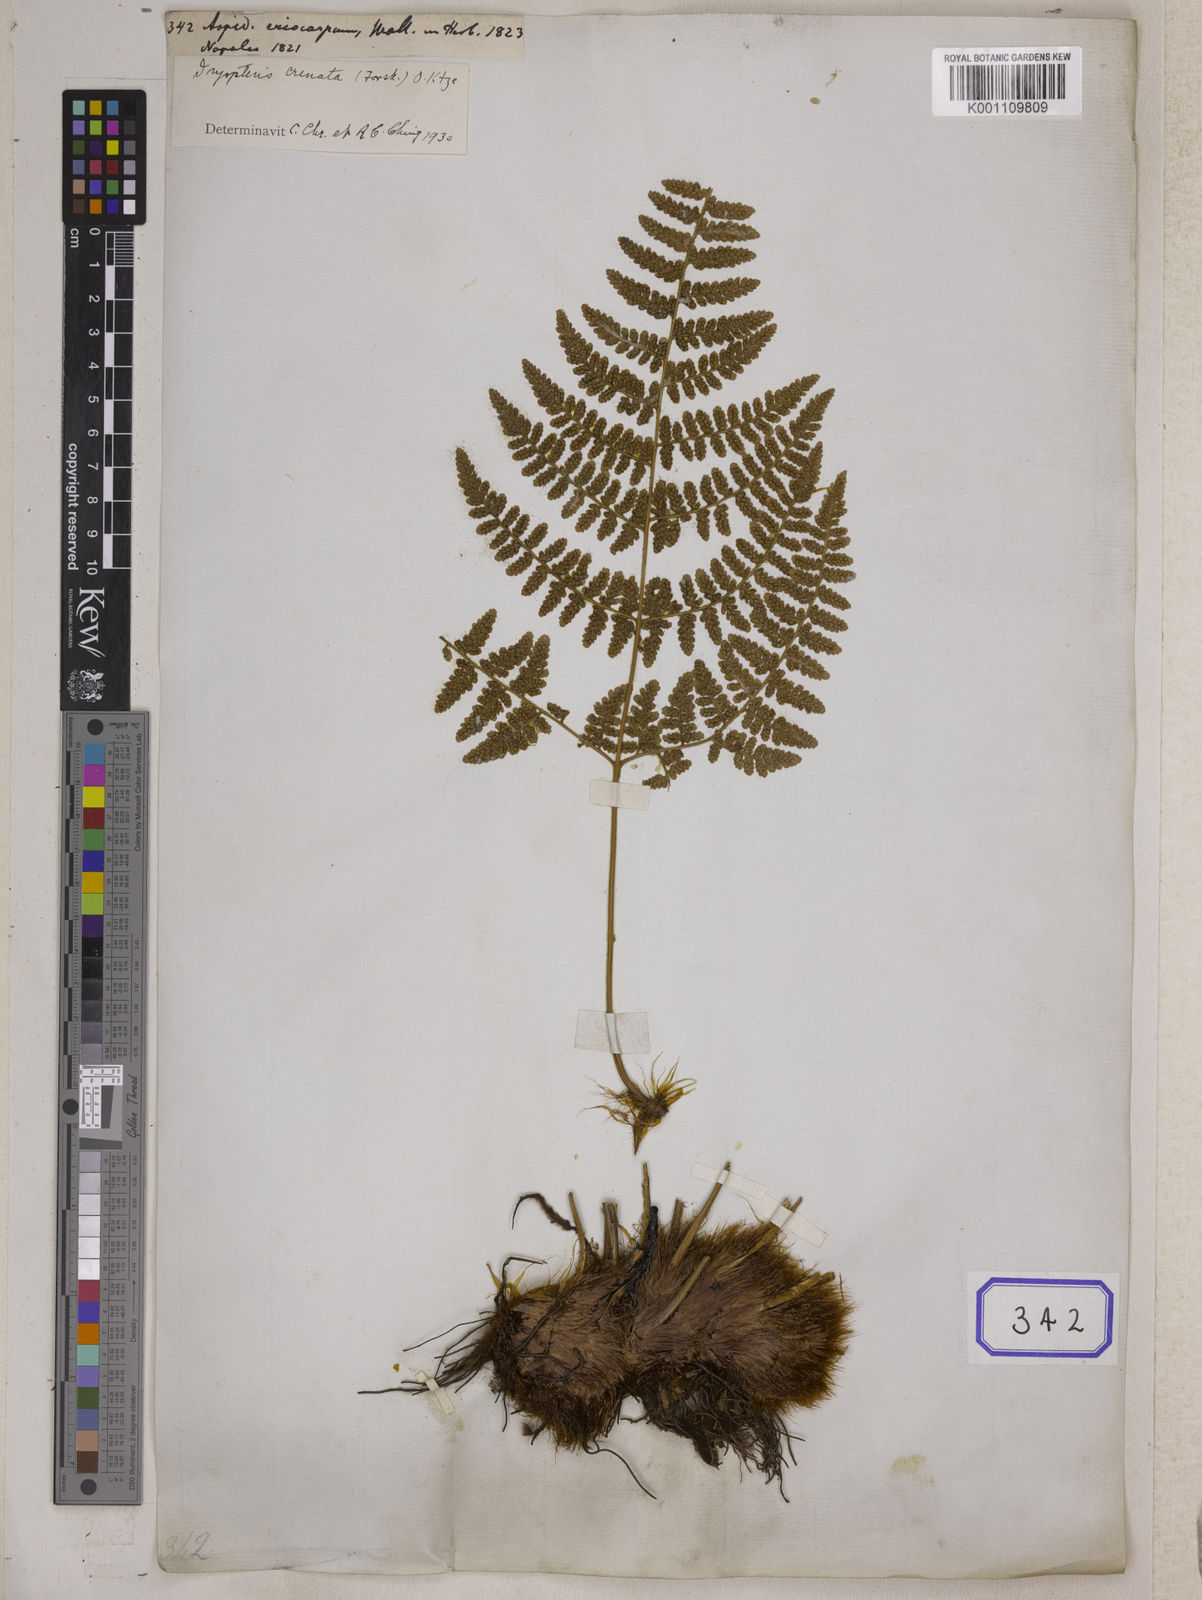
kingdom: Plantae
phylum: Tracheophyta
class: Polypodiopsida
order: Polypodiales
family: Hypodematiaceae
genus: Hypodematium
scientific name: Hypodematium shingii
